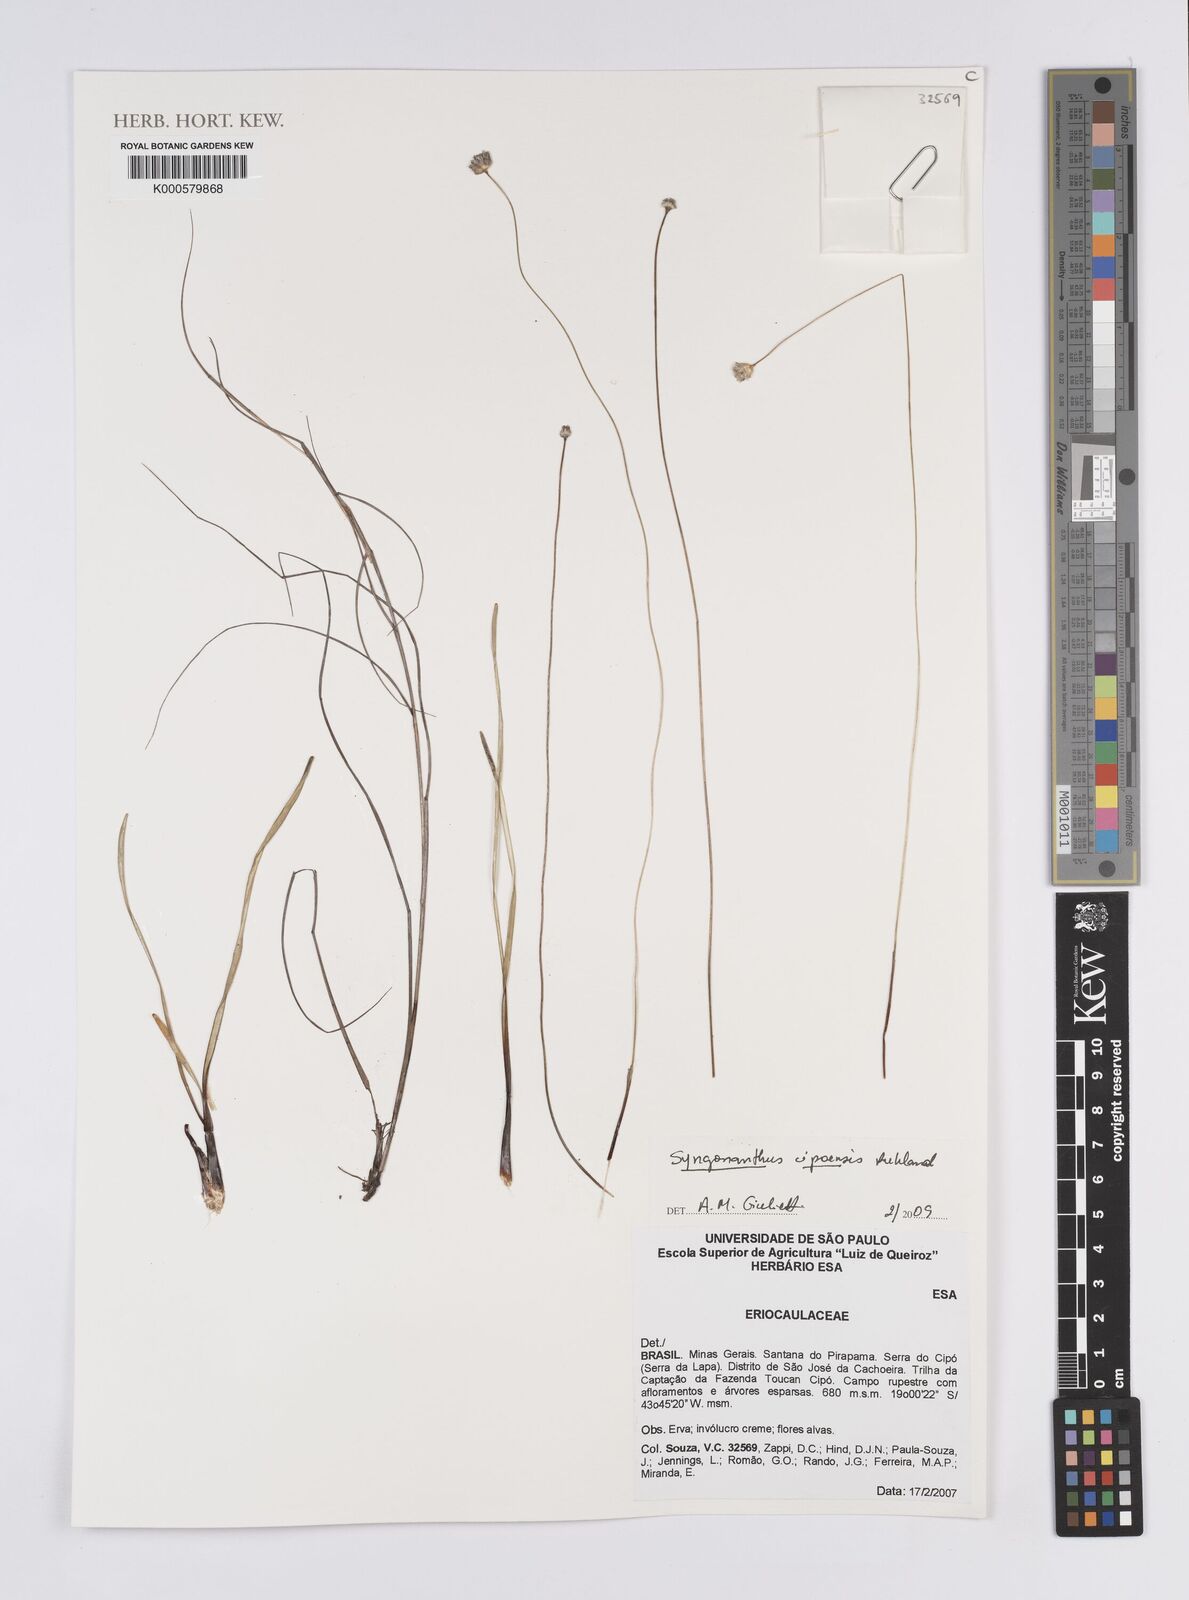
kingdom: Plantae
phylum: Tracheophyta
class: Liliopsida
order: Poales
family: Eriocaulaceae
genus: Comanthera
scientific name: Comanthera cipoensis
